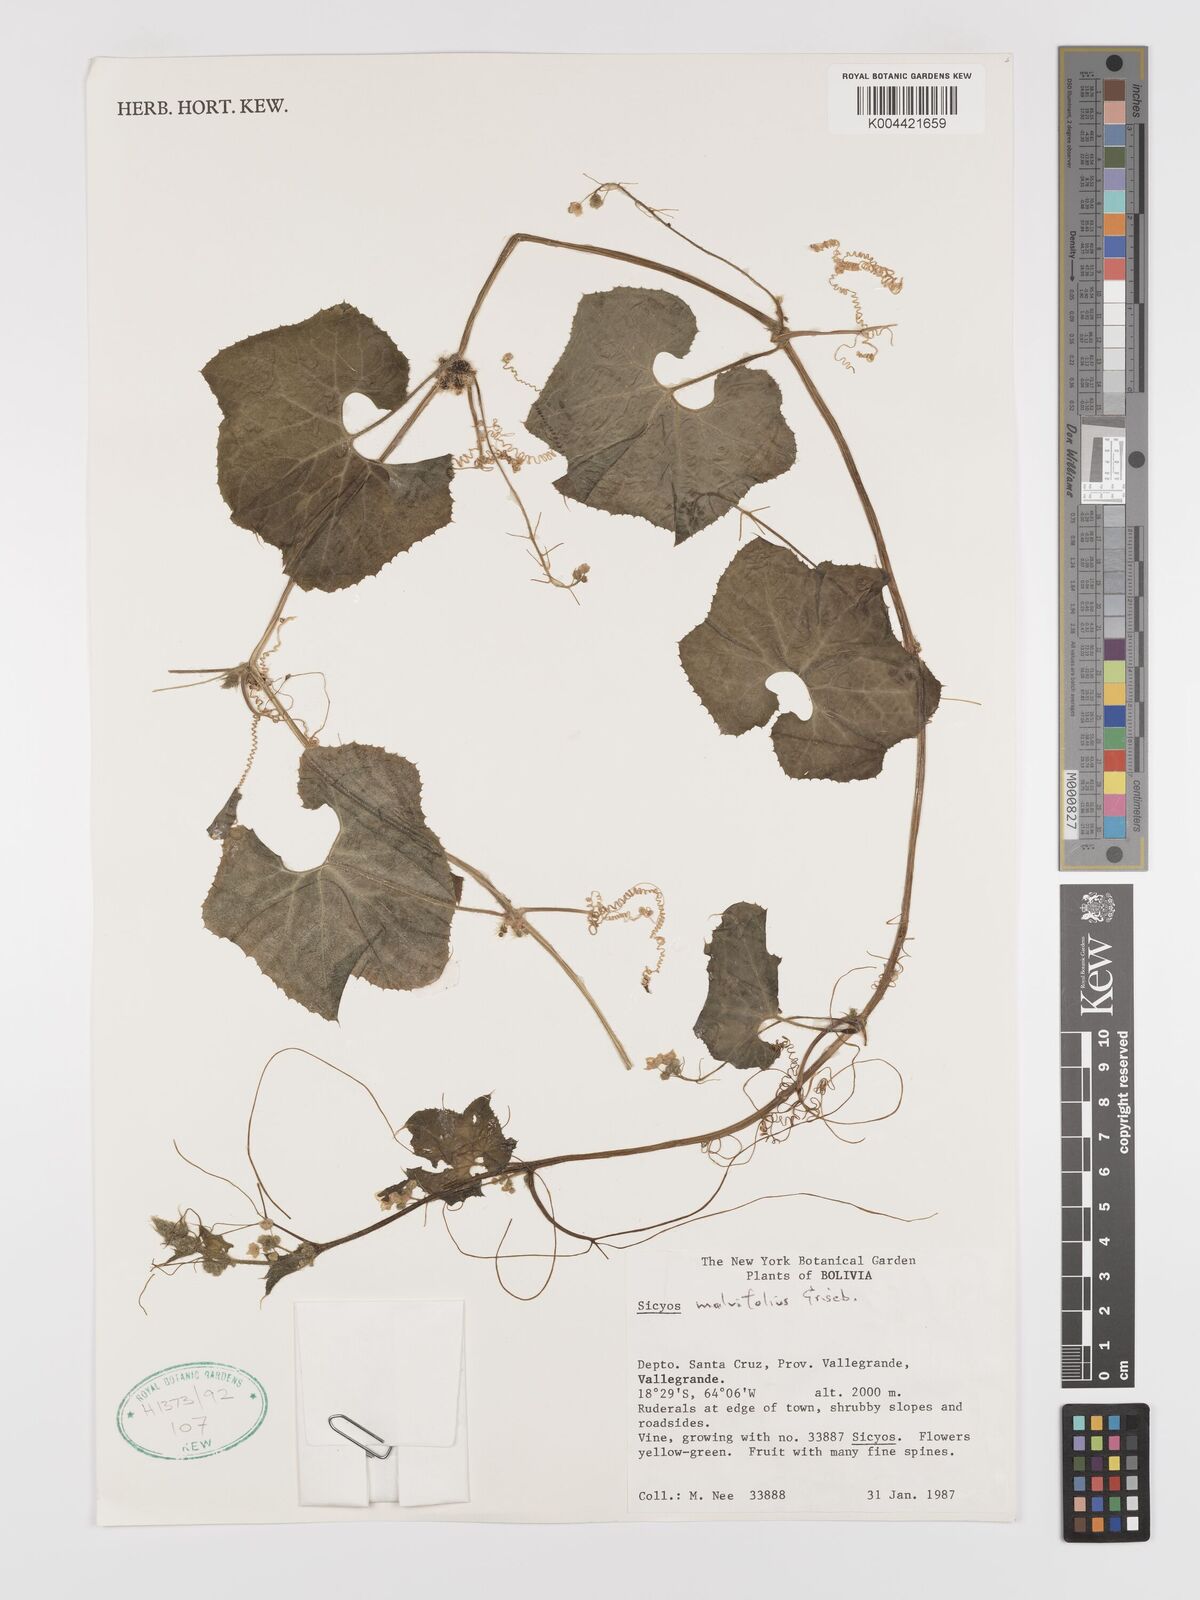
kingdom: Plantae
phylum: Tracheophyta
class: Magnoliopsida
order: Cucurbitales
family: Cucurbitaceae
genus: Sicyos
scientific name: Sicyos malvifolius
